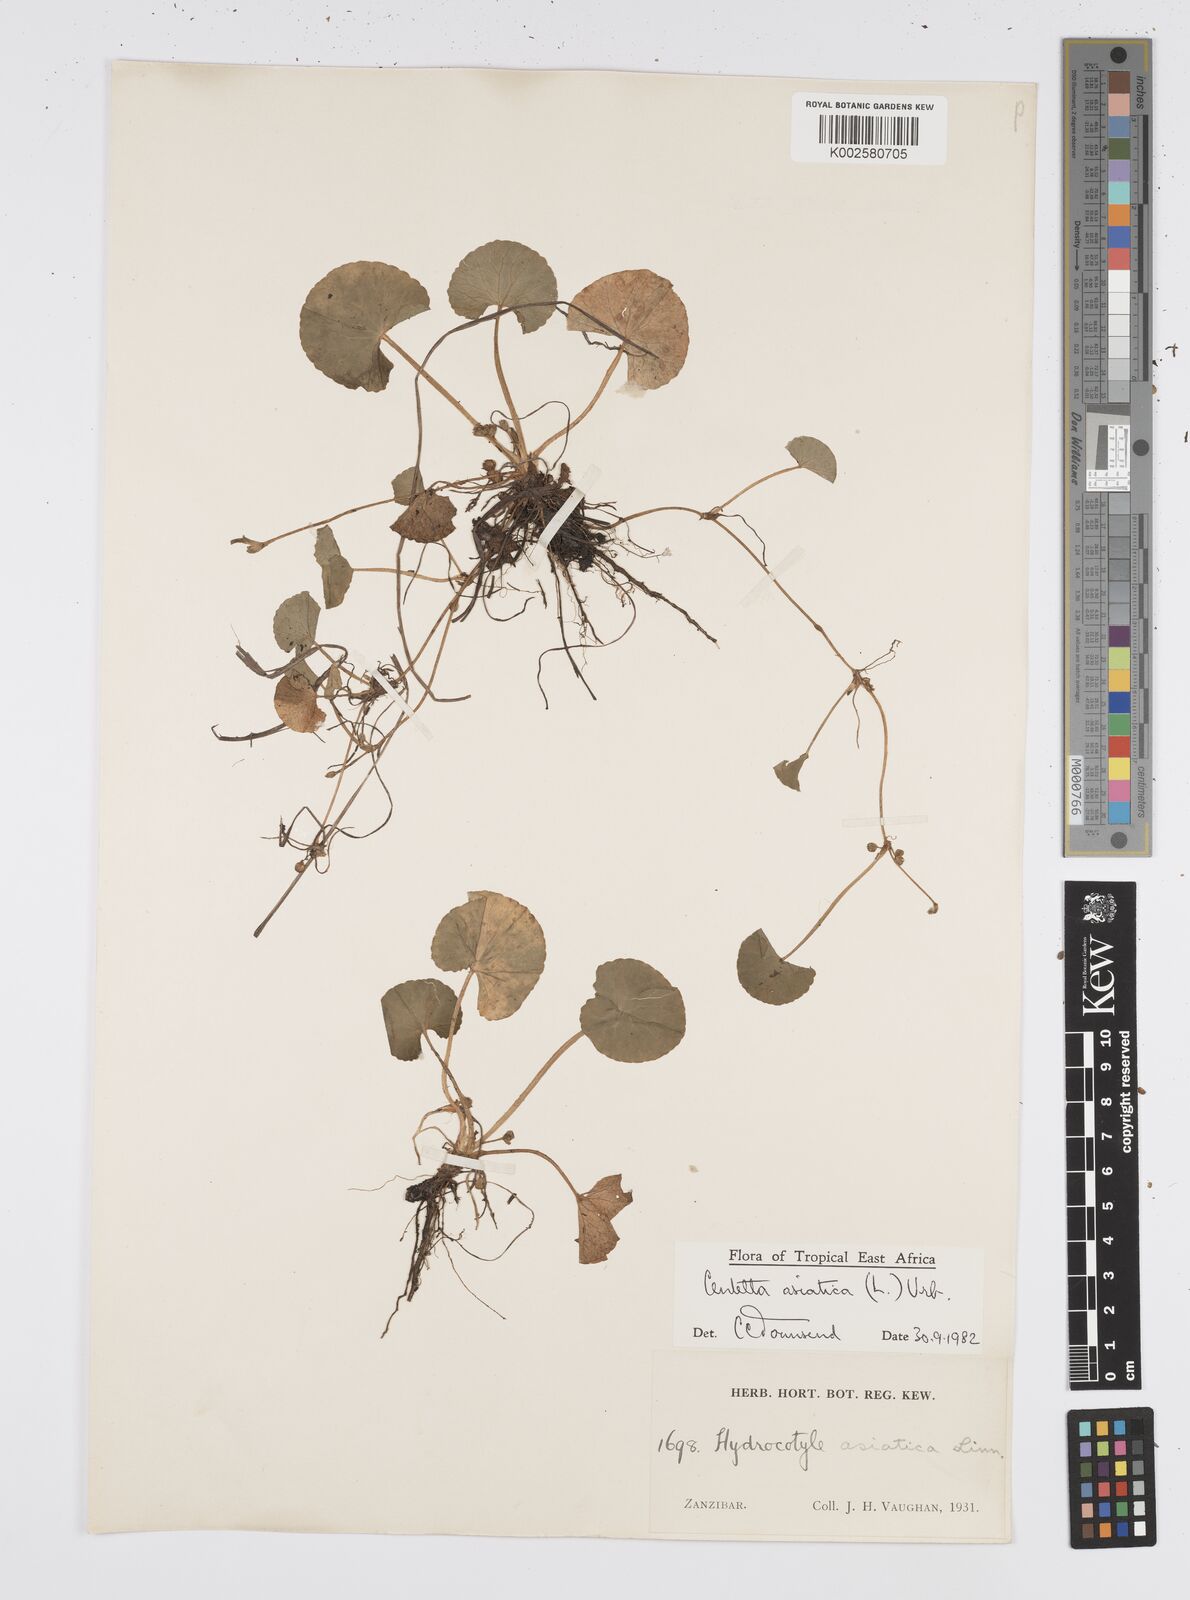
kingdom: Plantae
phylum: Tracheophyta
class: Magnoliopsida
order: Apiales
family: Apiaceae
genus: Centella
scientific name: Centella asiatica
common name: Spadeleaf
